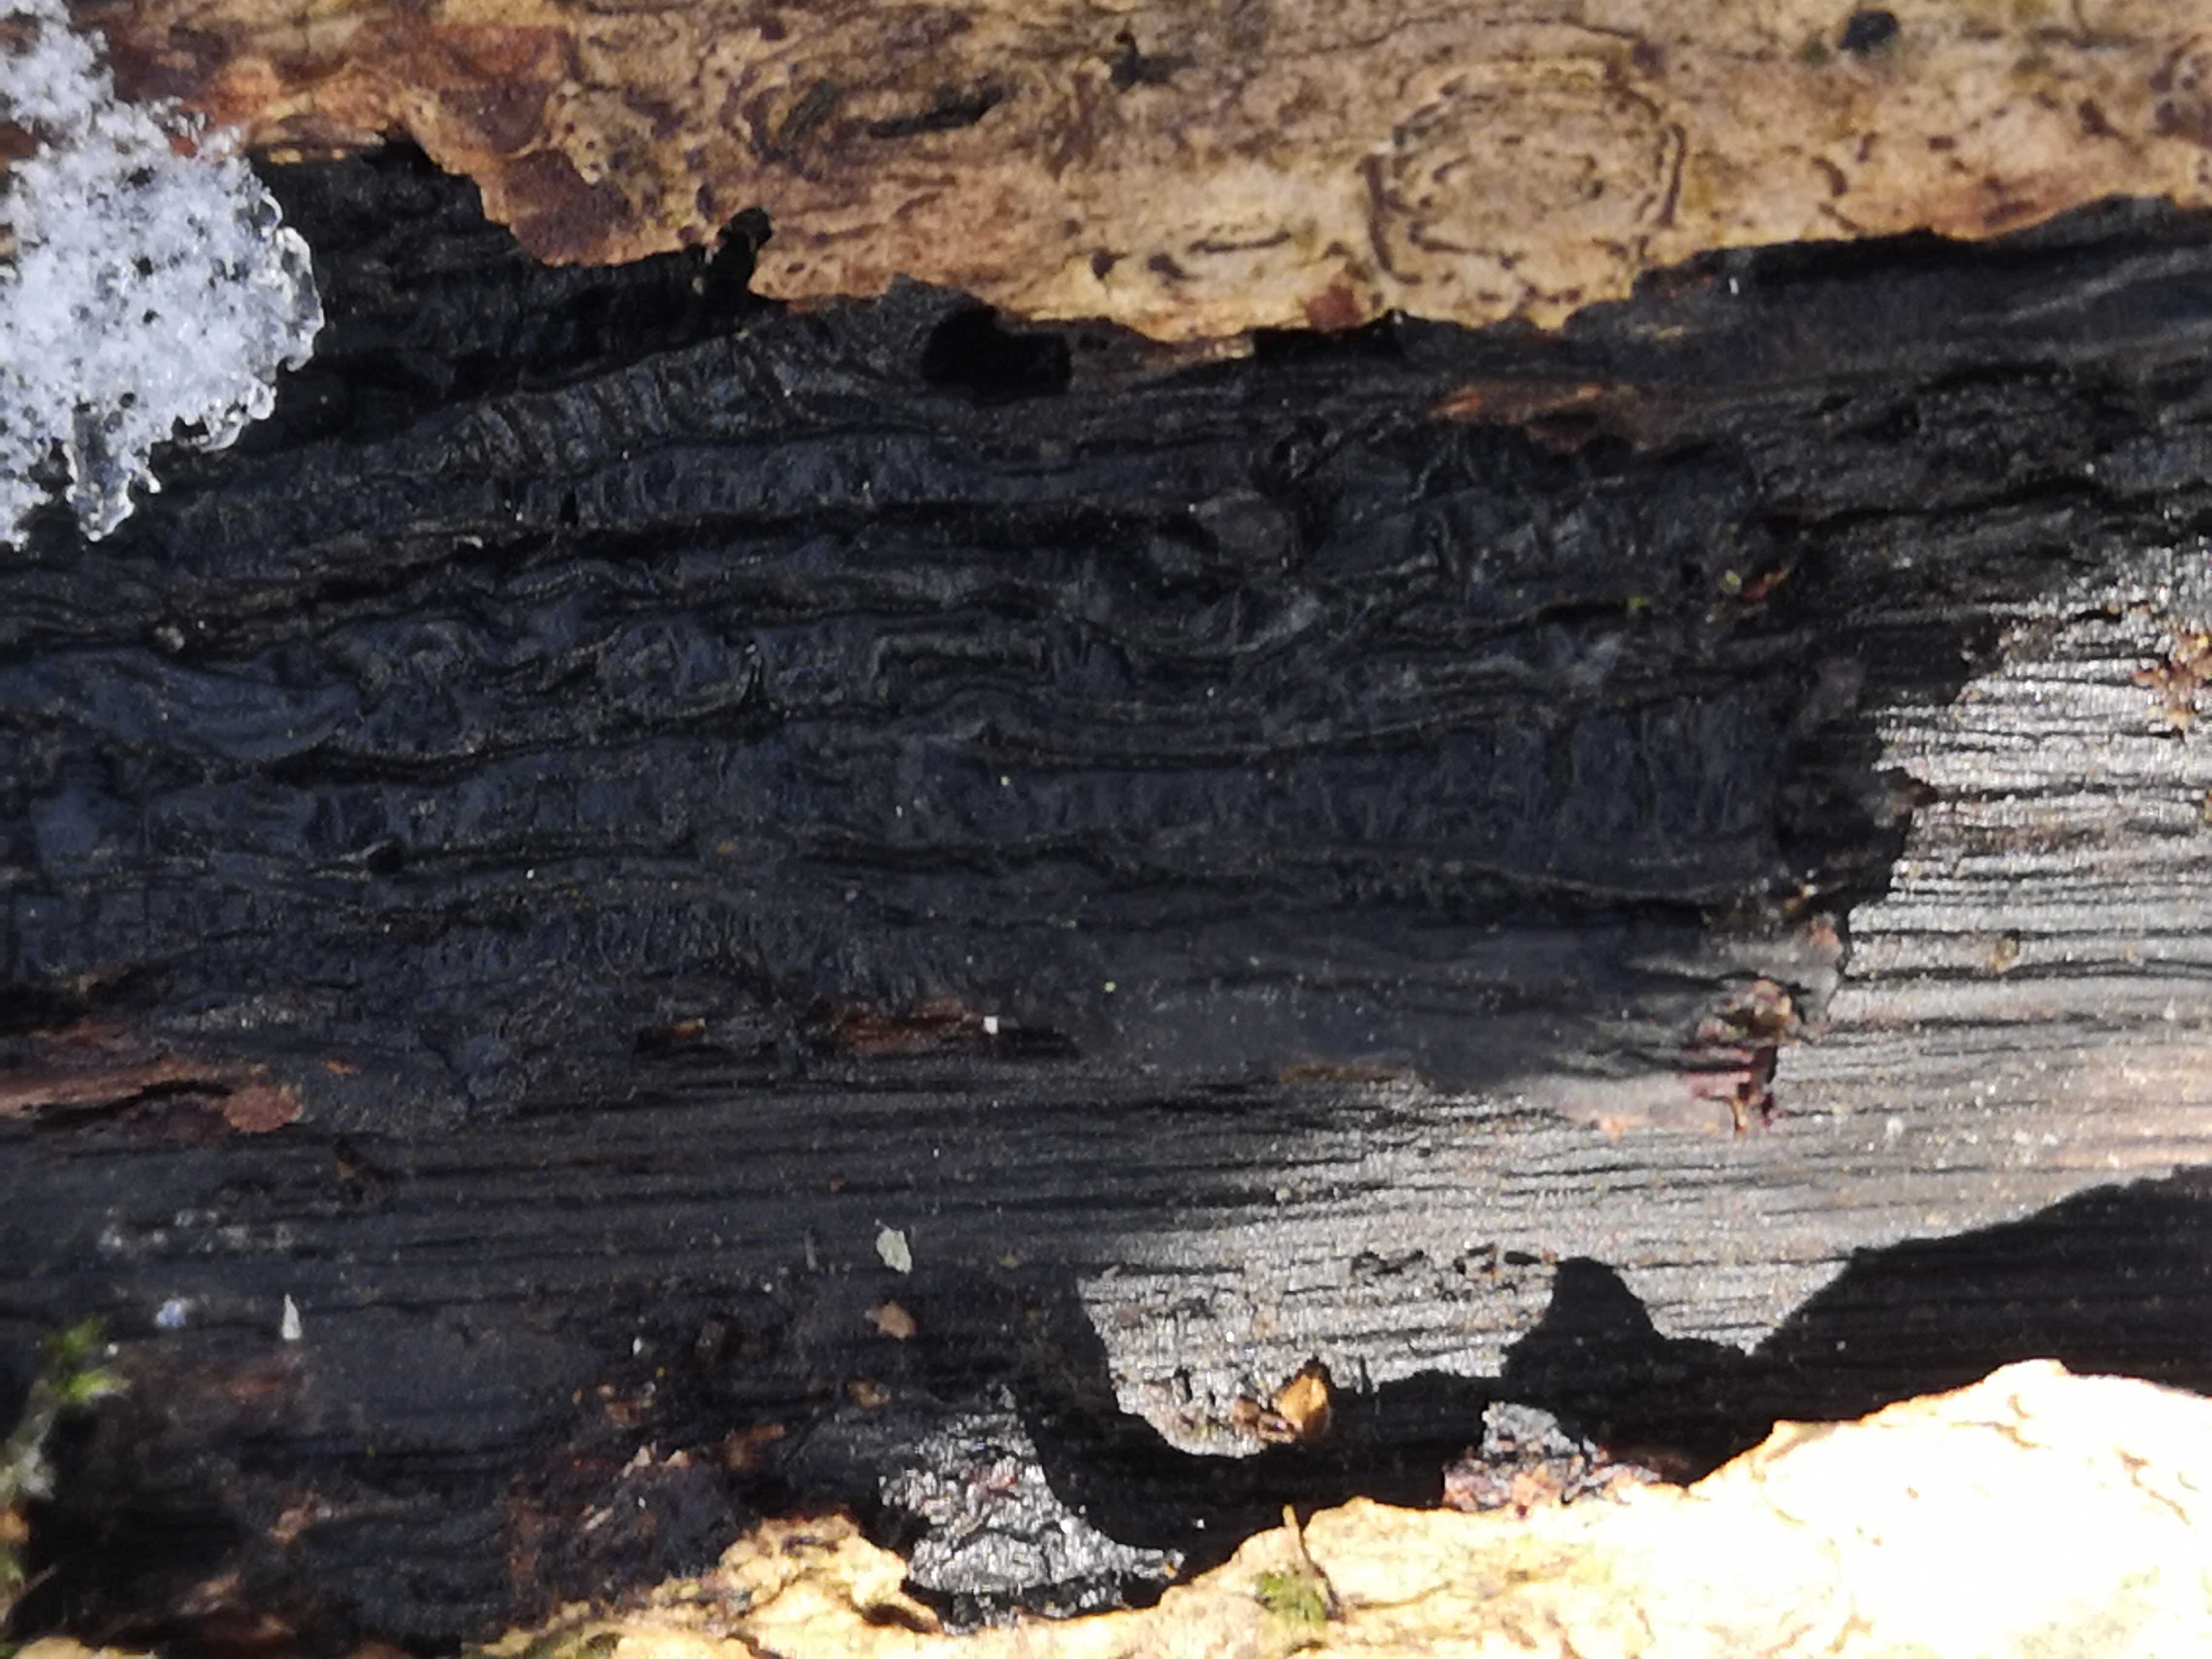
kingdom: Fungi
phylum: Basidiomycota
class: Agaricomycetes
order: Agaricales
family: Physalacriaceae
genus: Armillaria
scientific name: Armillaria
